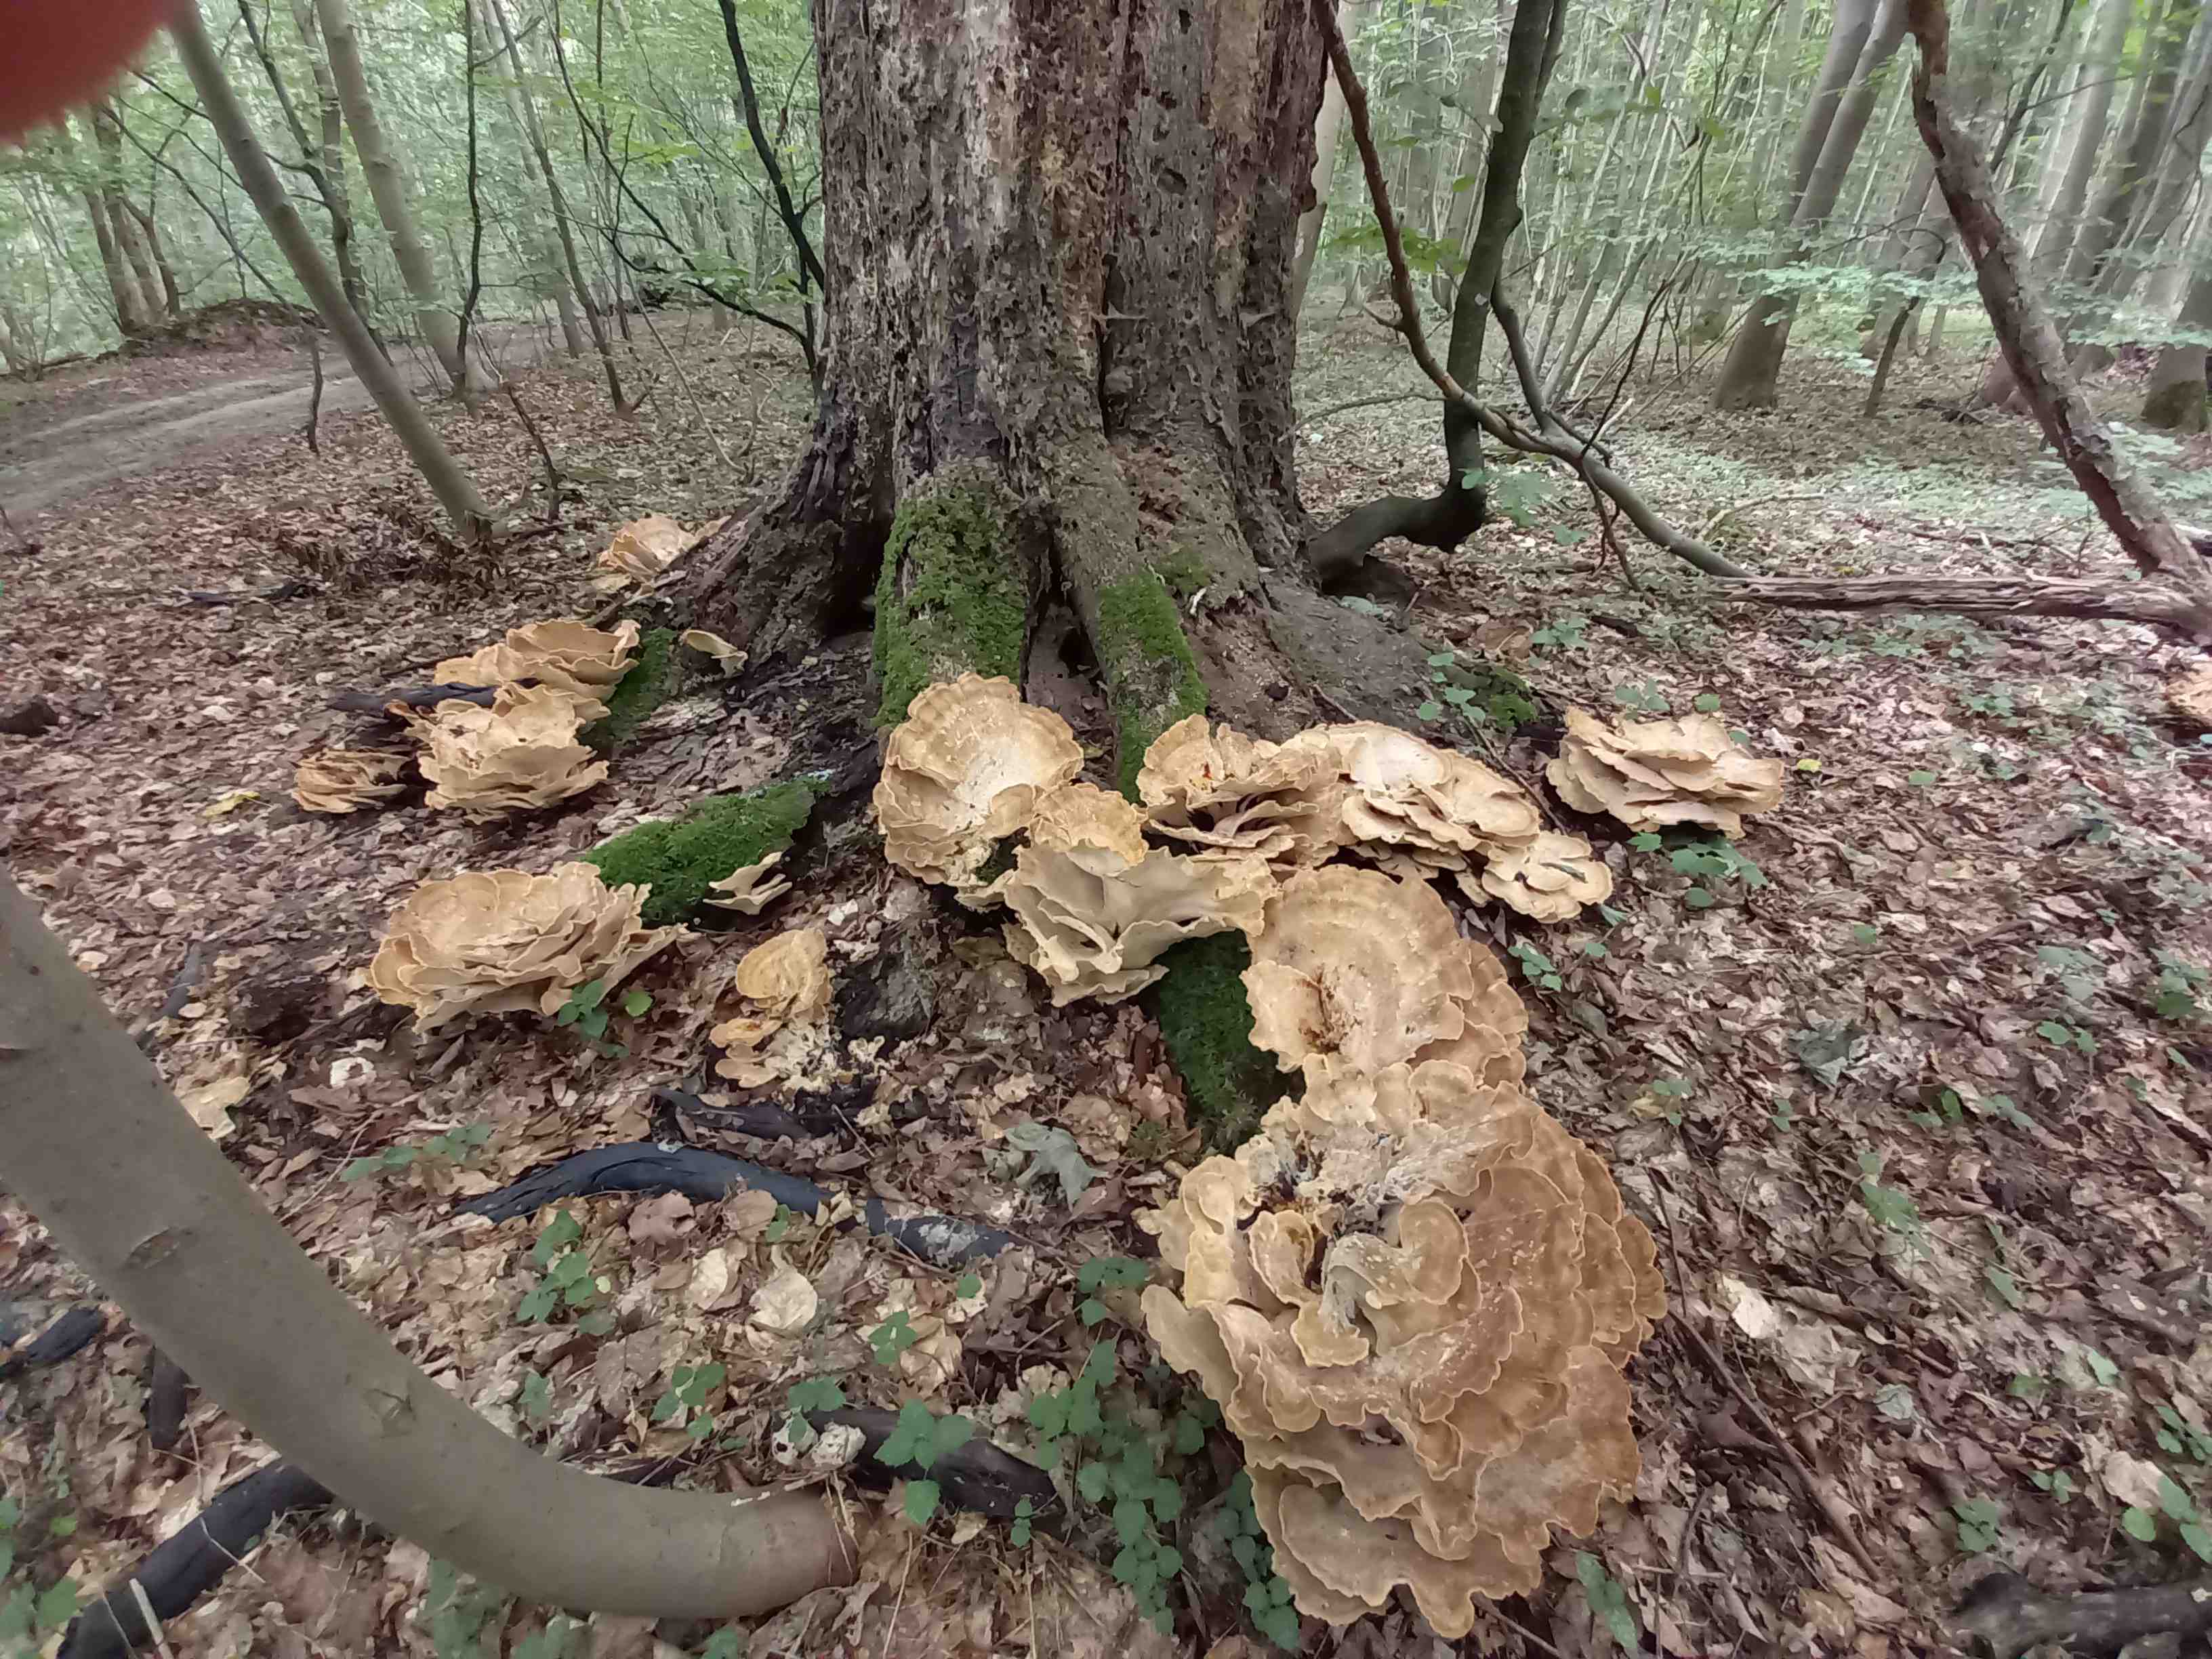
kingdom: Fungi
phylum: Basidiomycota
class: Agaricomycetes
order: Polyporales
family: Meripilaceae
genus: Meripilus
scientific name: Meripilus giganteus
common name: kæmpeporesvamp
